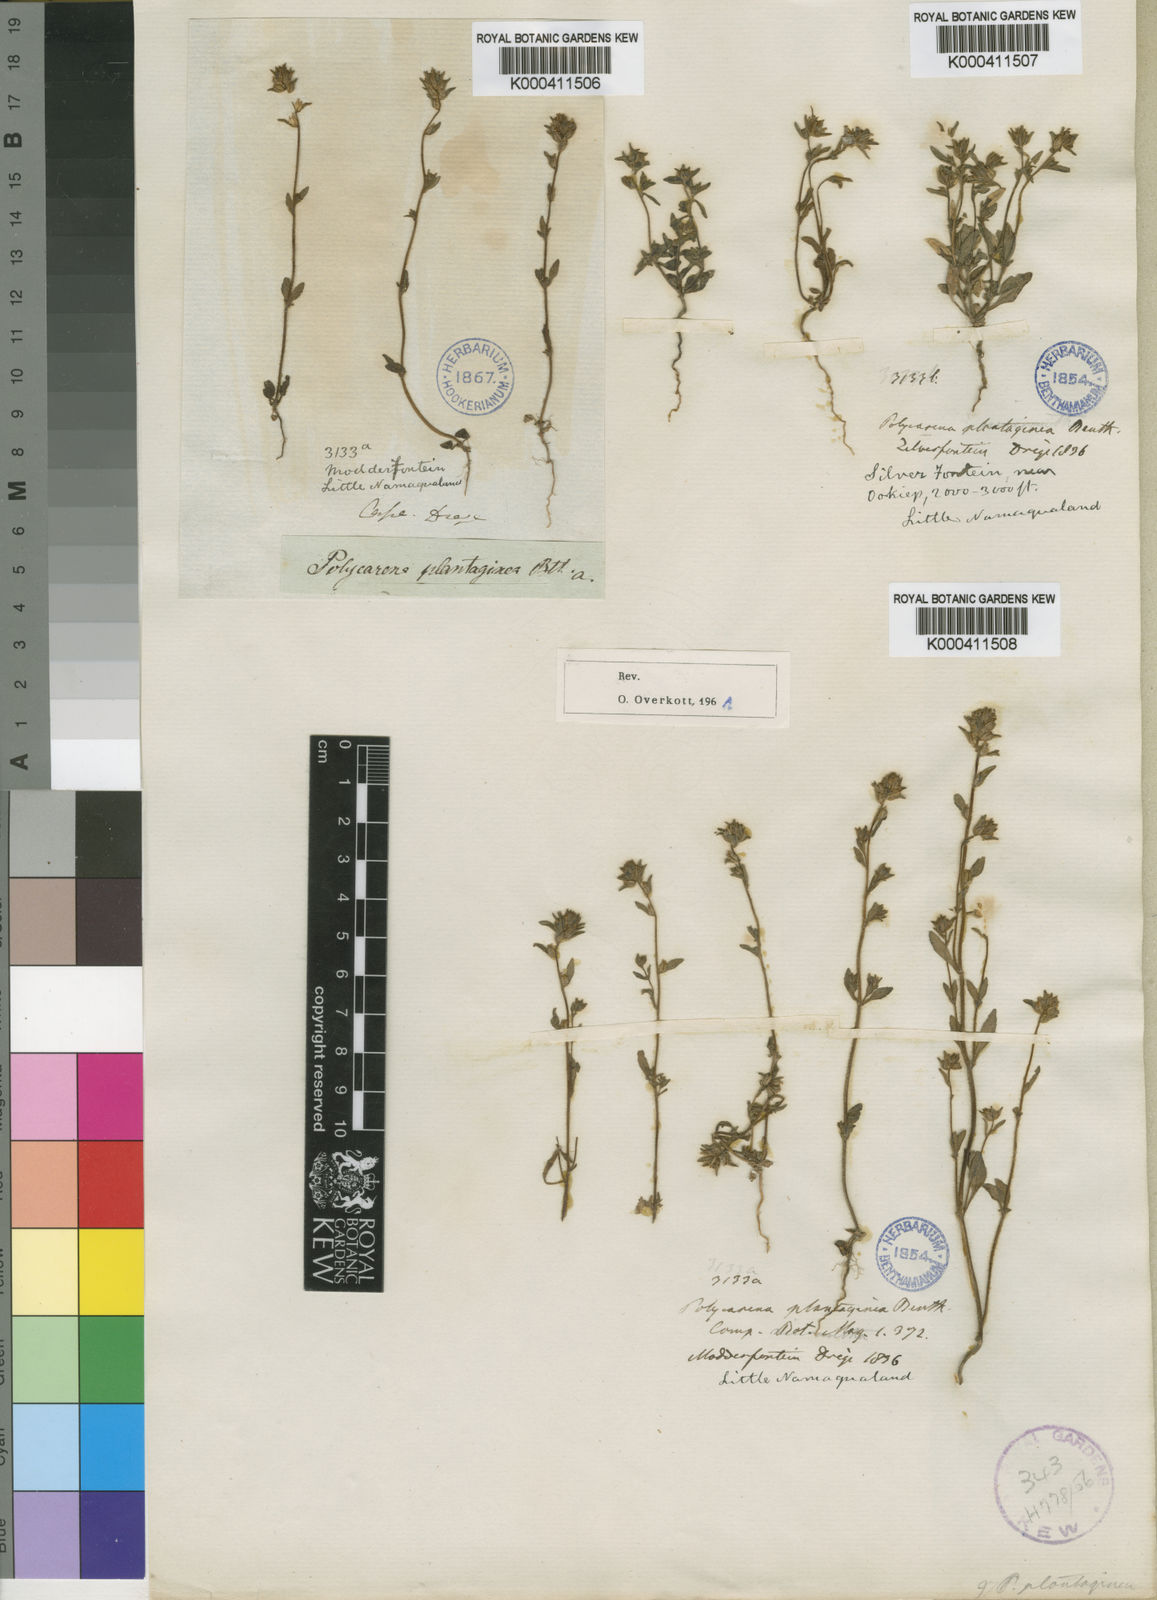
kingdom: Plantae
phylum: Tracheophyta
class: Magnoliopsida
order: Lamiales
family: Scrophulariaceae
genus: Phyllopodium
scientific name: Phyllopodium anomalum
